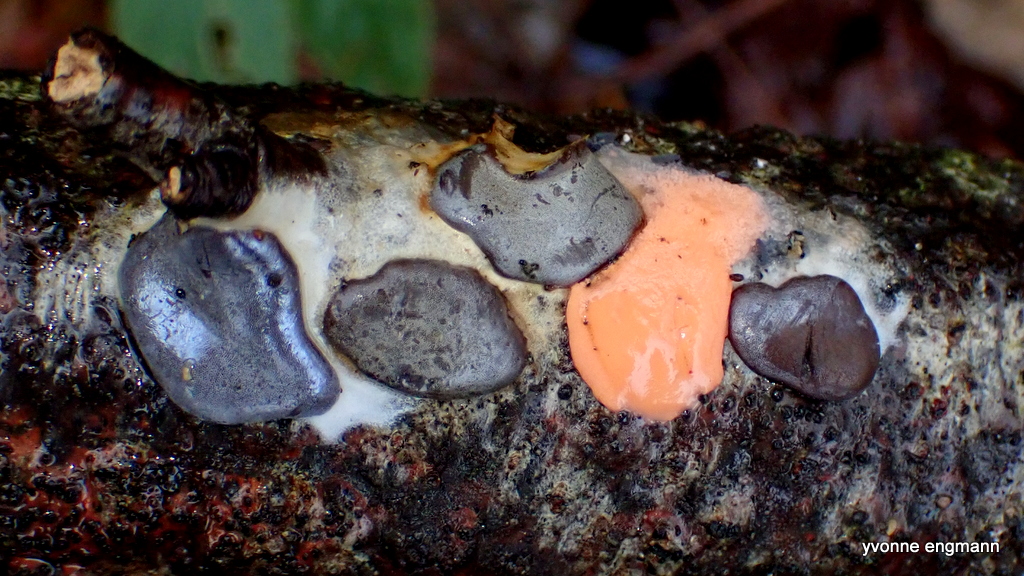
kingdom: Protozoa
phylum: Mycetozoa
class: Myxomycetes
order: Trichiales
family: Dictydiaethaliaceae
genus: Dictydiaethalium
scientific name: Dictydiaethalium plumbeum
